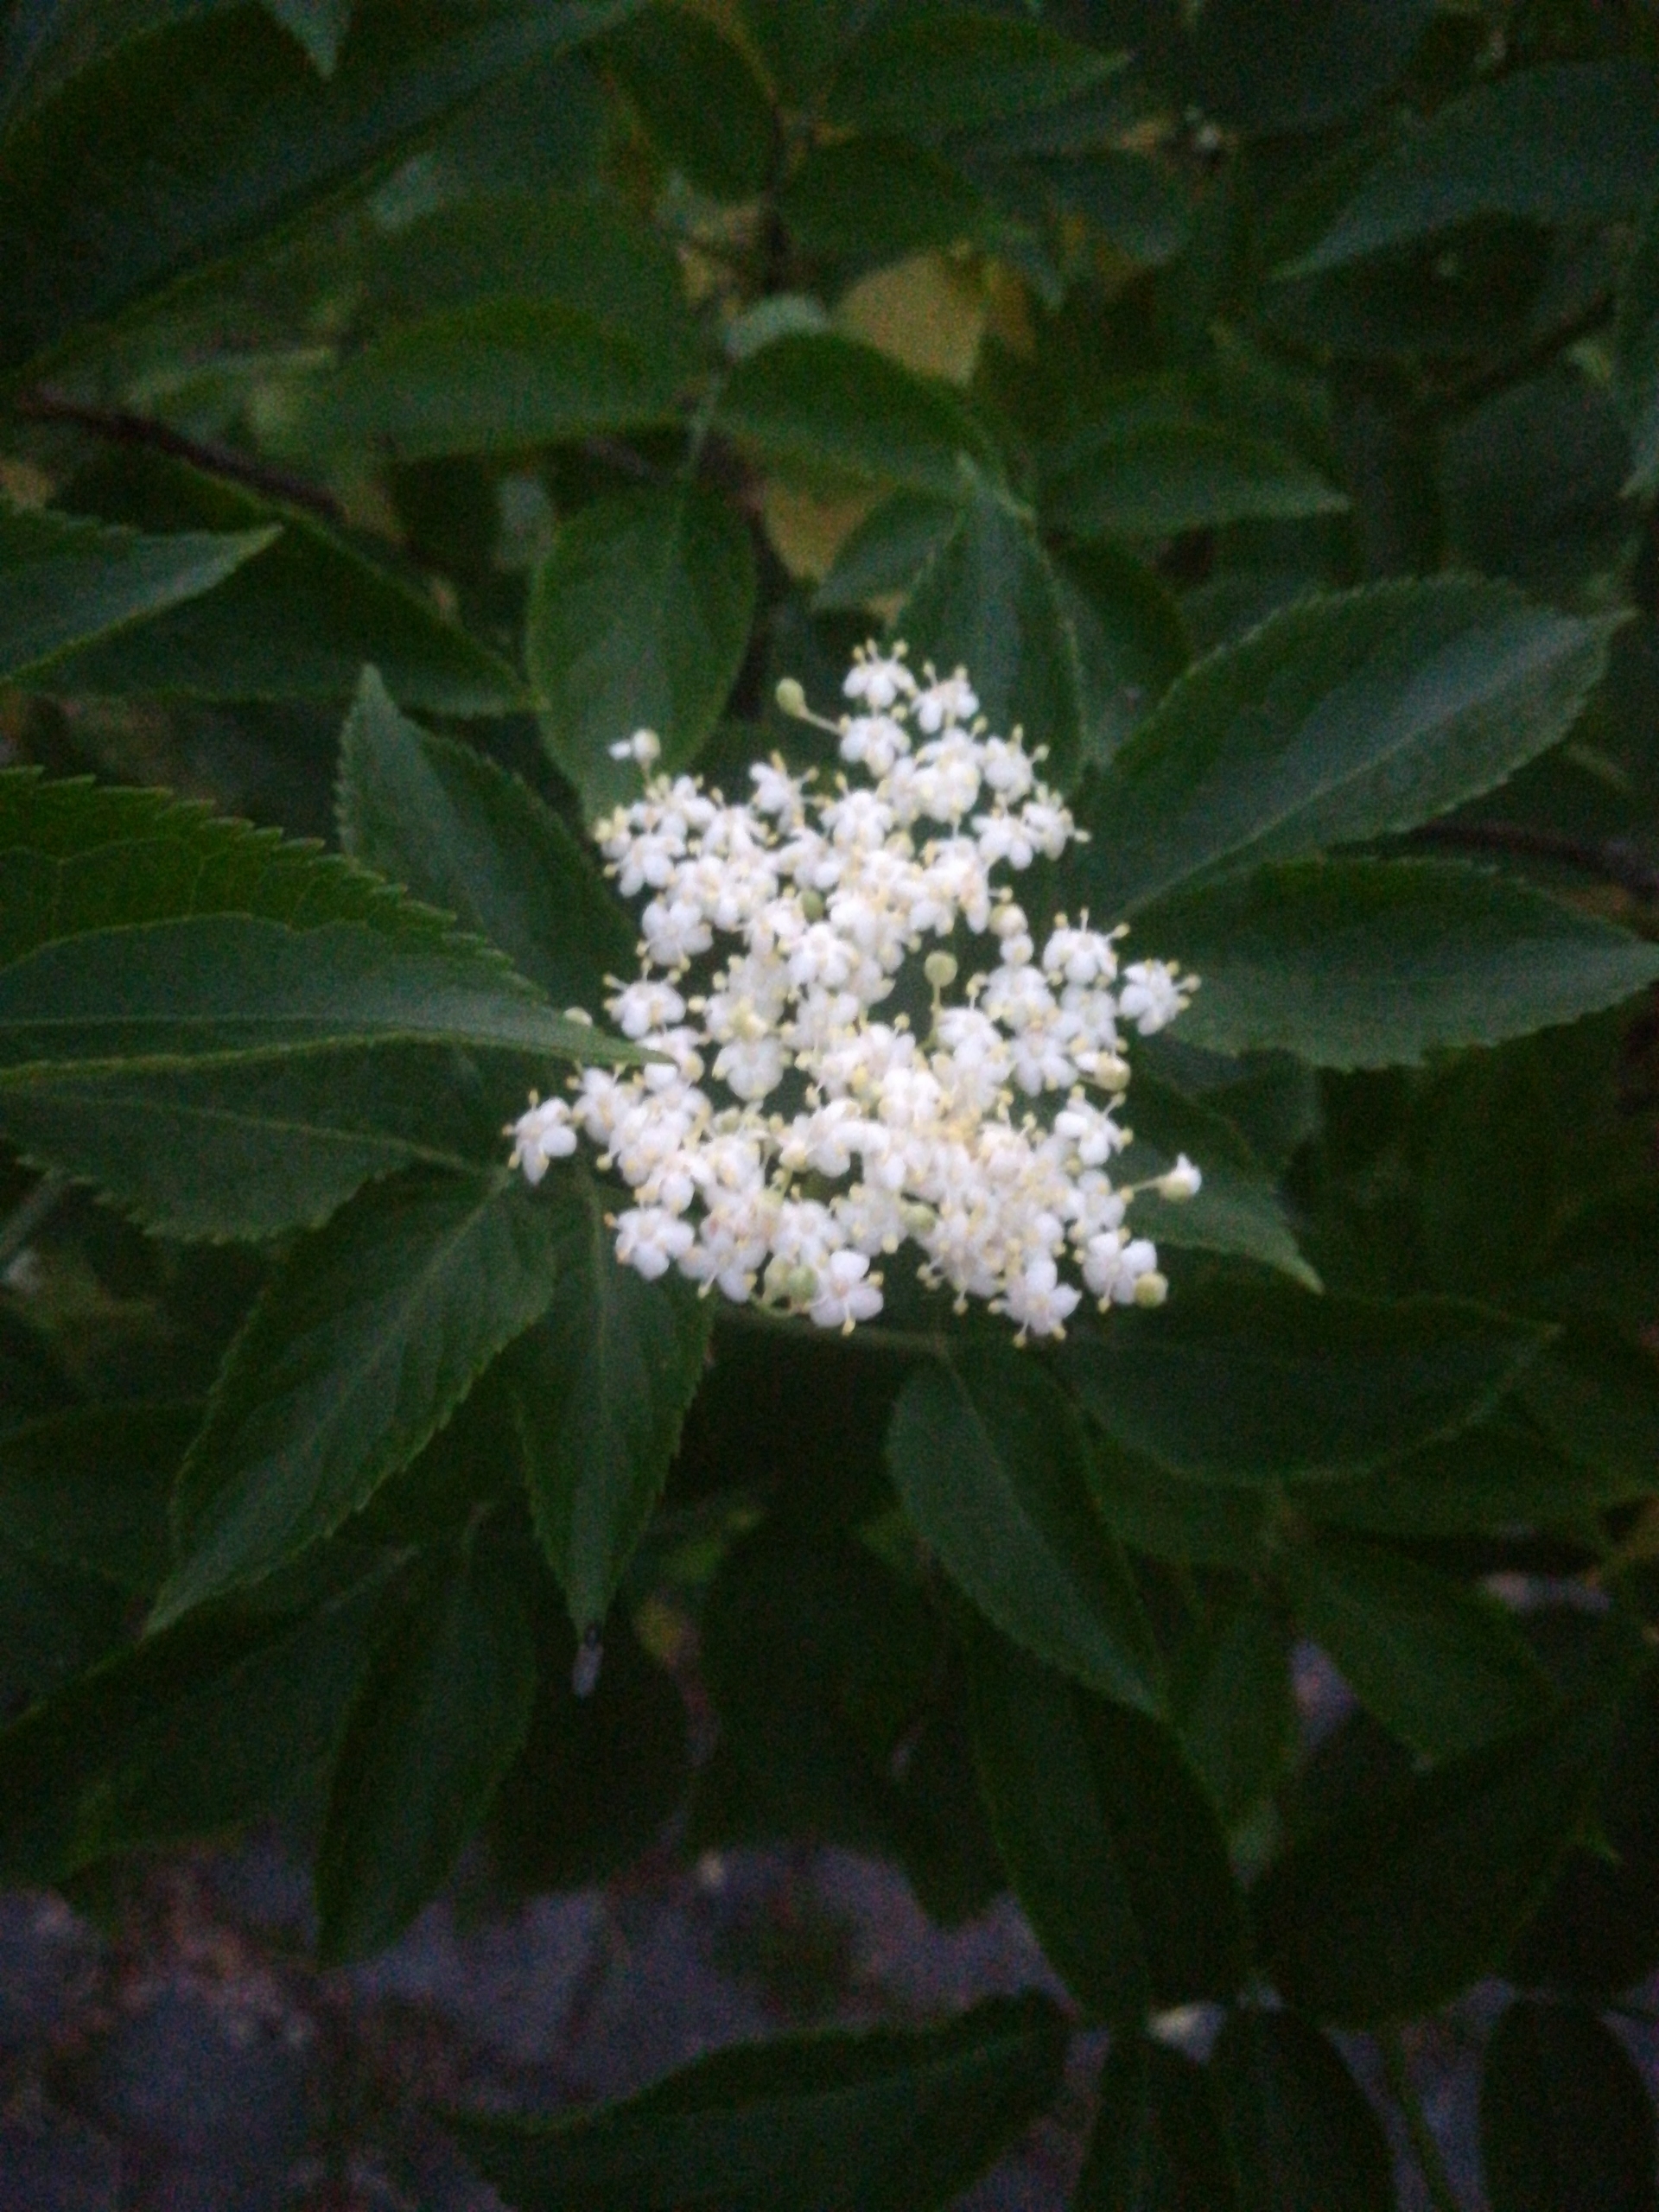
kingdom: Plantae
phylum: Tracheophyta
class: Magnoliopsida
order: Dipsacales
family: Viburnaceae
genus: Sambucus
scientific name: Sambucus nigra
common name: Almindelig hyld
